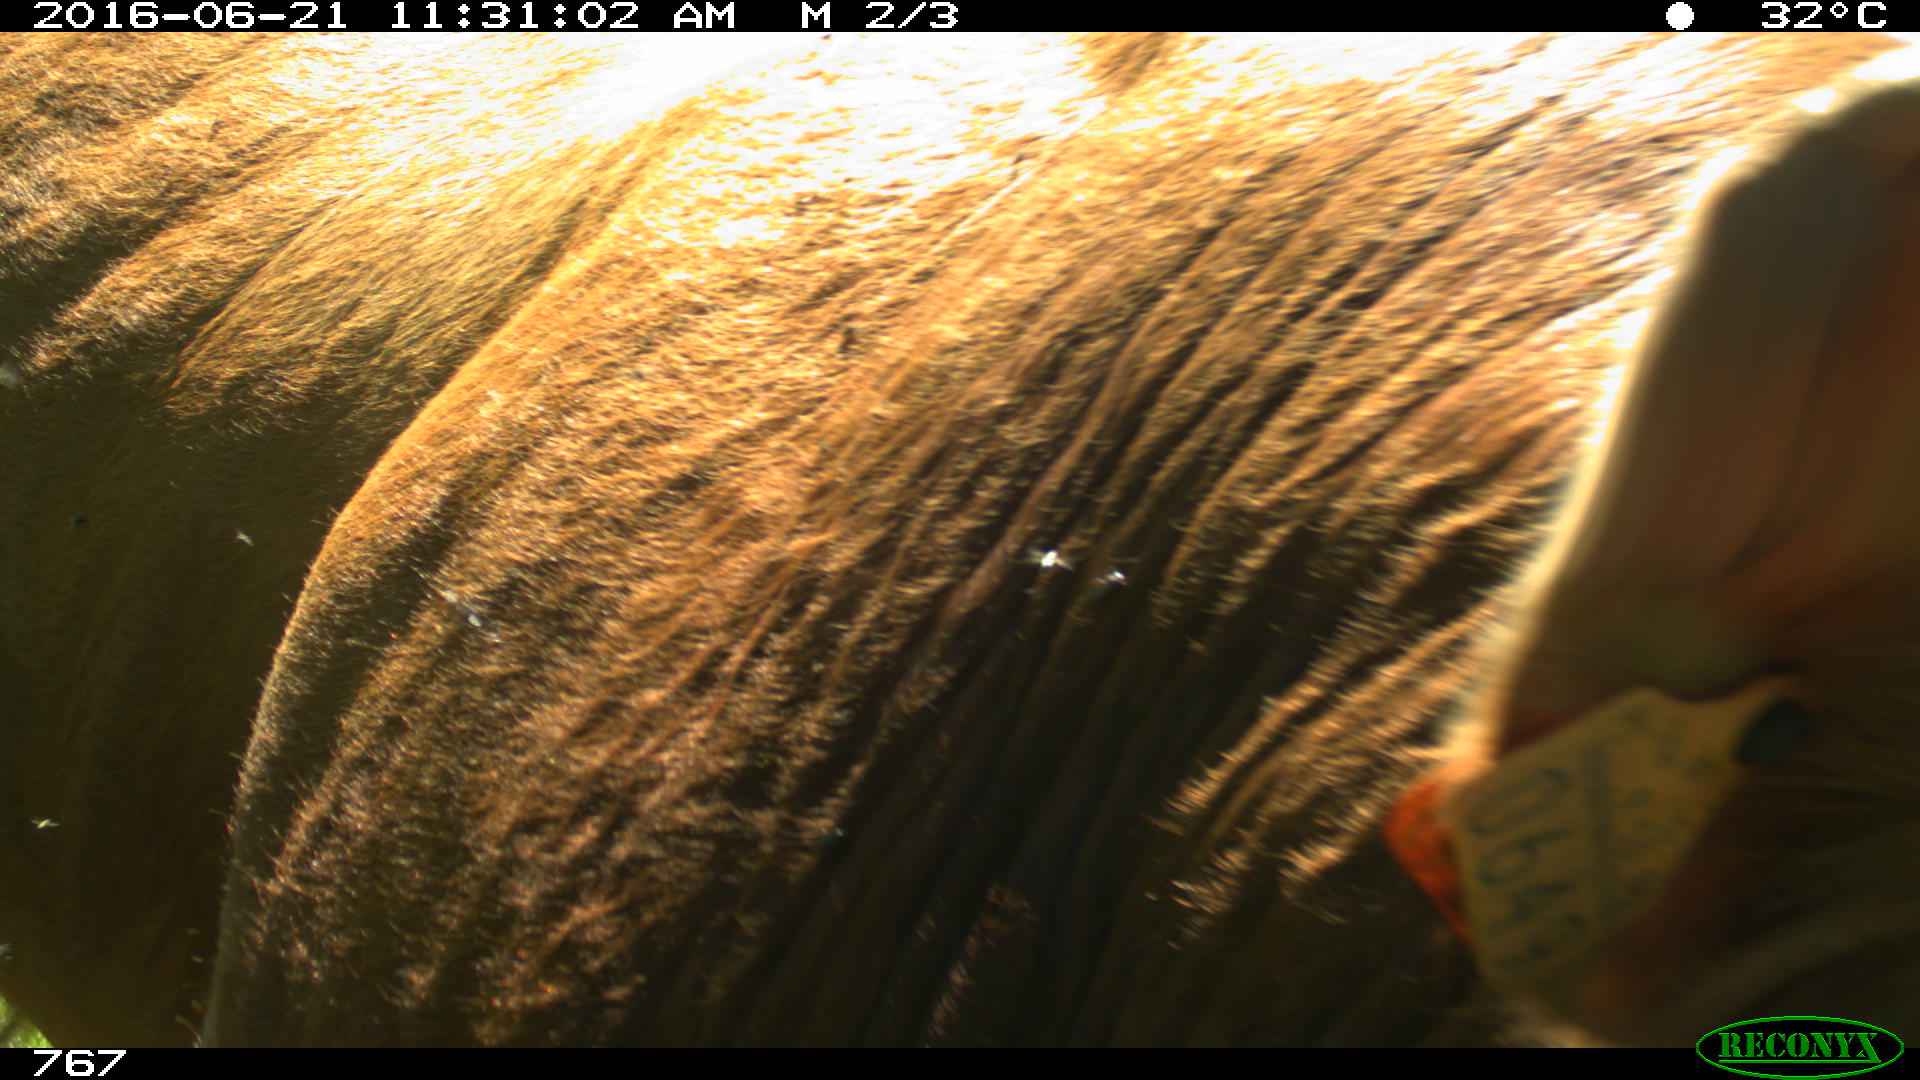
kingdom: Animalia
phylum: Chordata
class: Mammalia
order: Artiodactyla
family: Bovidae
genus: Bos
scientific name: Bos taurus
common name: Domesticated cattle
